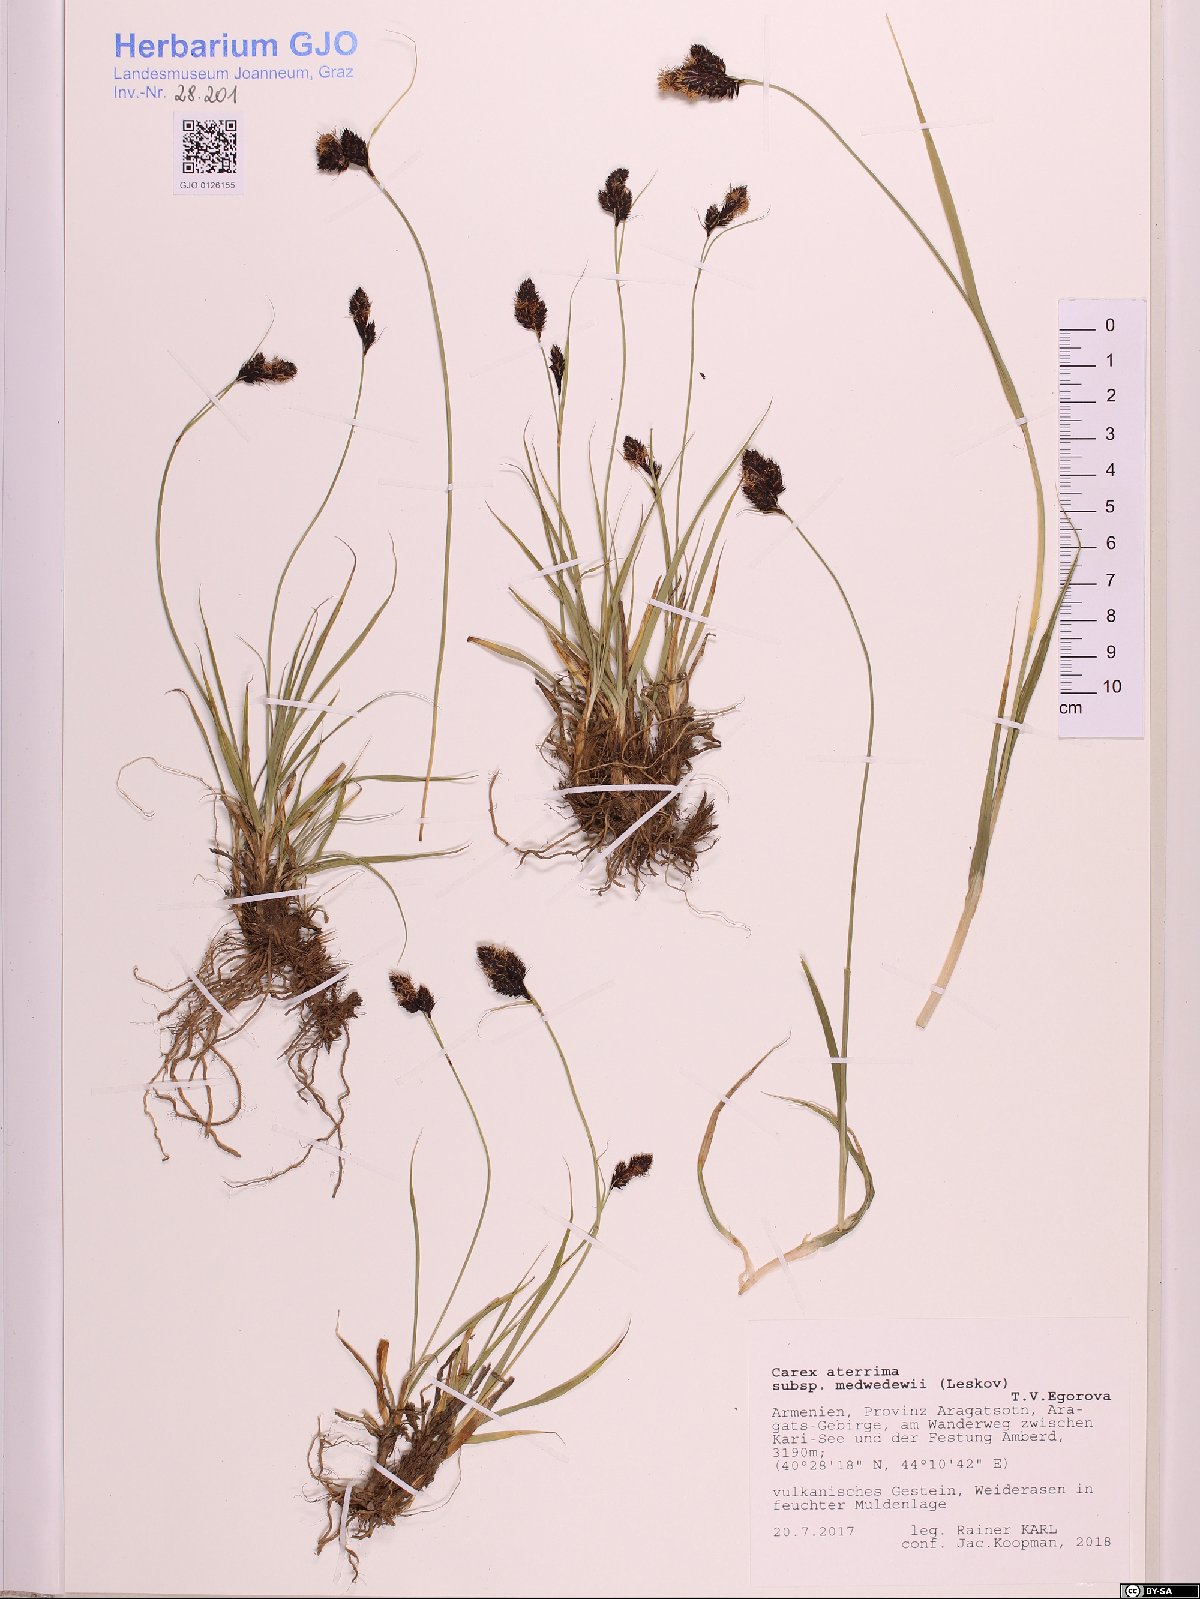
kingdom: Plantae
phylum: Tracheophyta
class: Liliopsida
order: Poales
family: Cyperaceae
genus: Carex
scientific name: Carex aterrima
